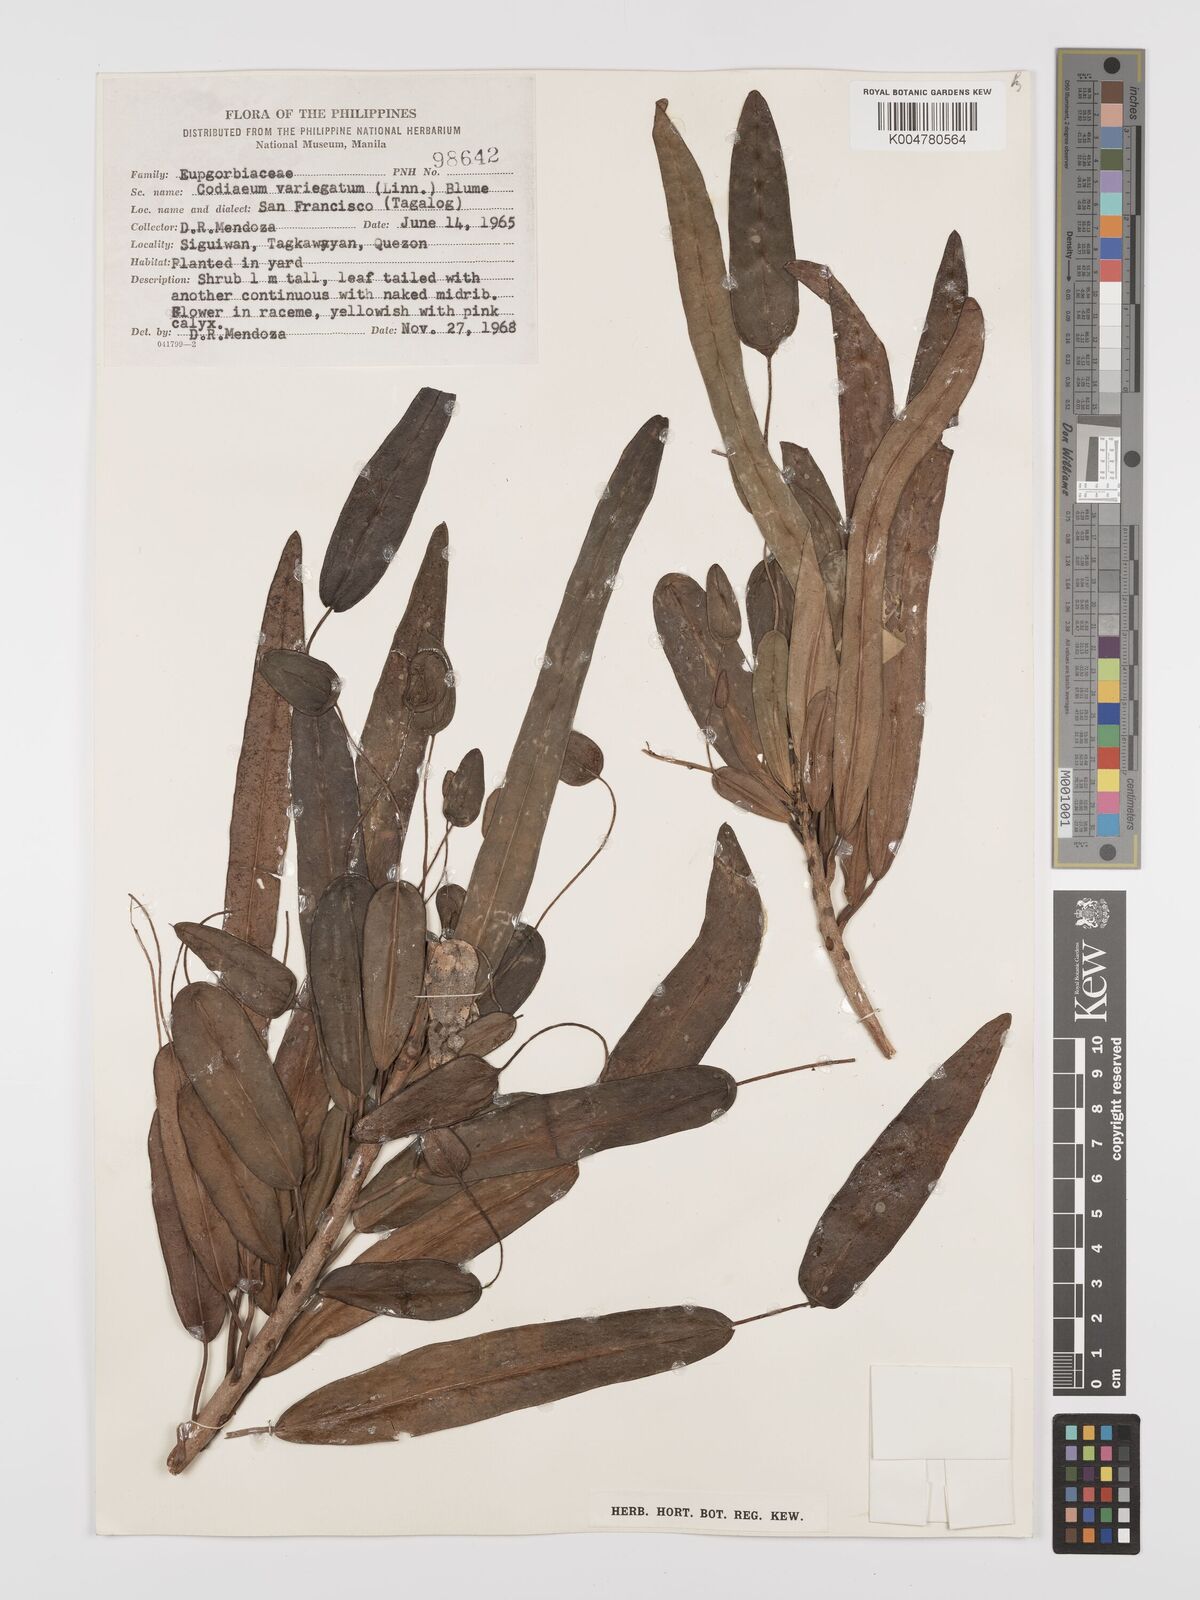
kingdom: Plantae
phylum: Tracheophyta
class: Magnoliopsida
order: Malpighiales
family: Euphorbiaceae
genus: Codiaeum
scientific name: Codiaeum variegatum
